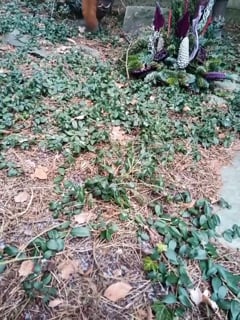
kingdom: Animalia
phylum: Chordata
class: Mammalia
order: Rodentia
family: Sciuridae
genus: Sciurus
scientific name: Sciurus vulgaris
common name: Eurasian red squirrel
